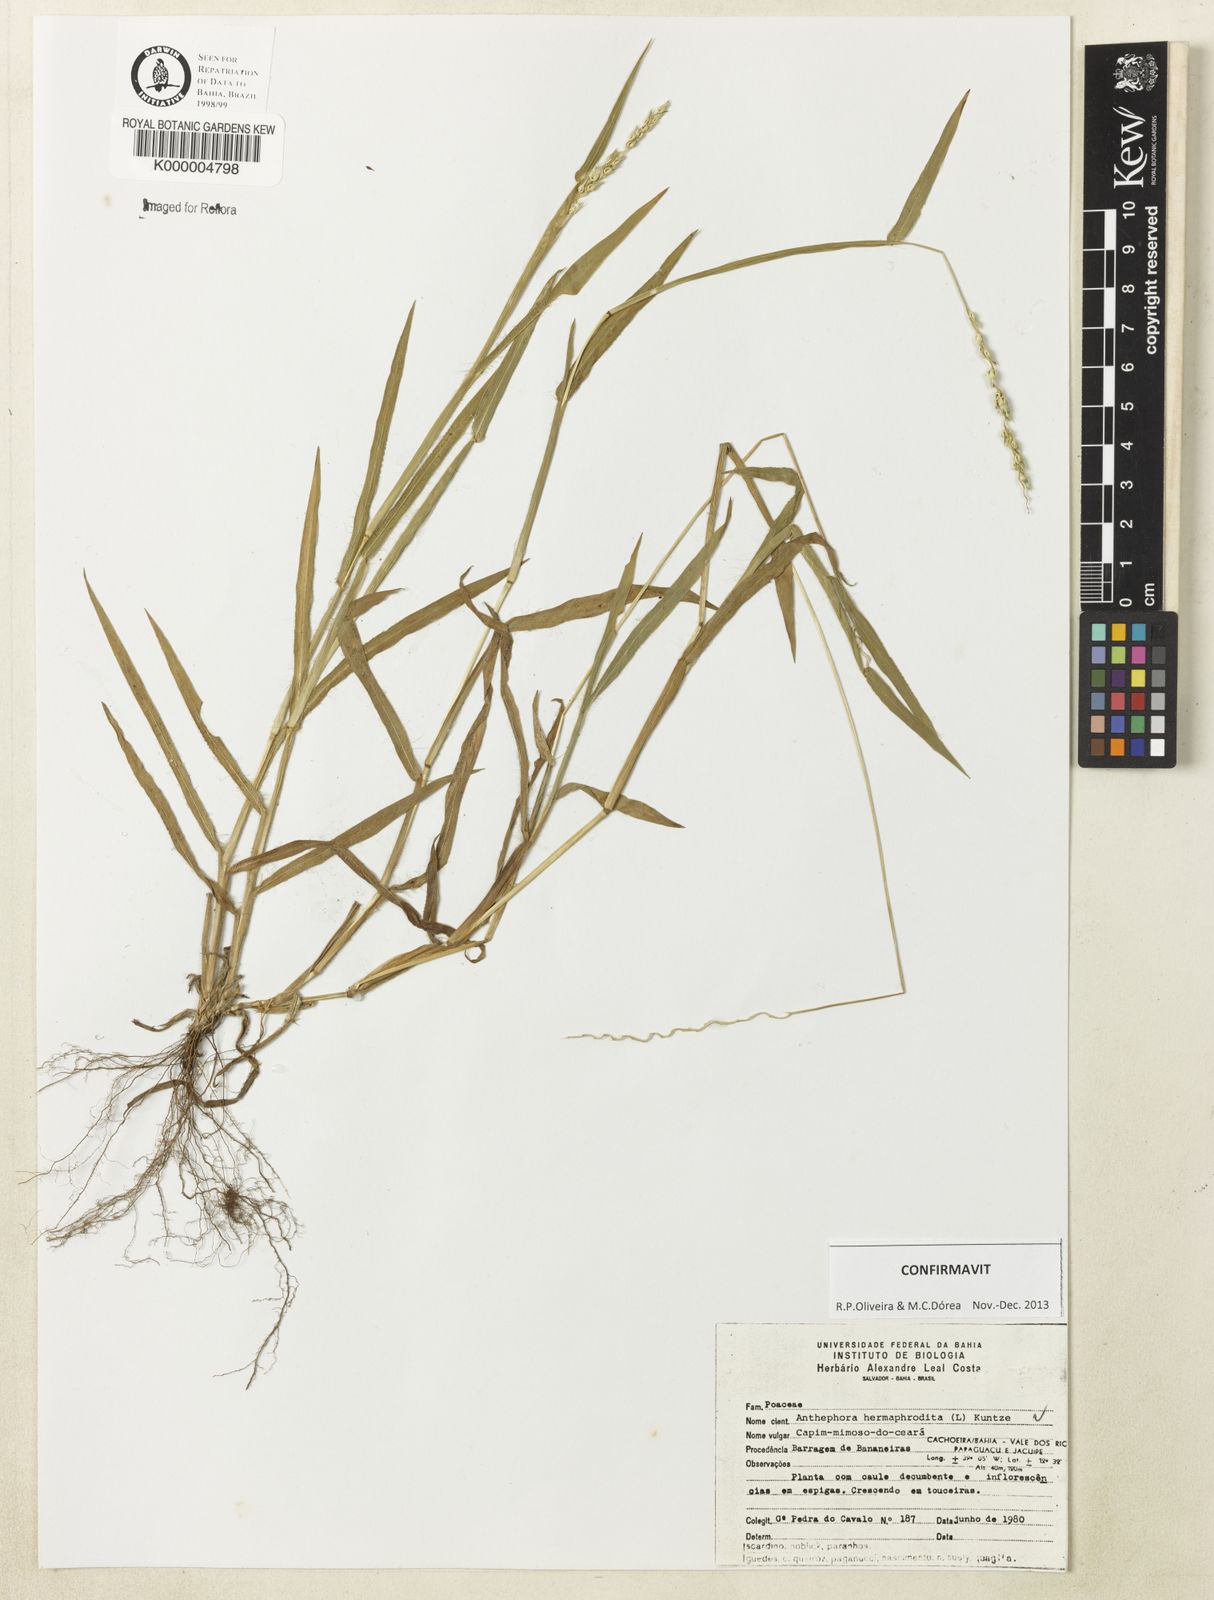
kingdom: Plantae
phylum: Tracheophyta
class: Liliopsida
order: Poales
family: Poaceae
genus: Anthephora
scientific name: Anthephora hermaphrodita
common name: Oldfield grass
